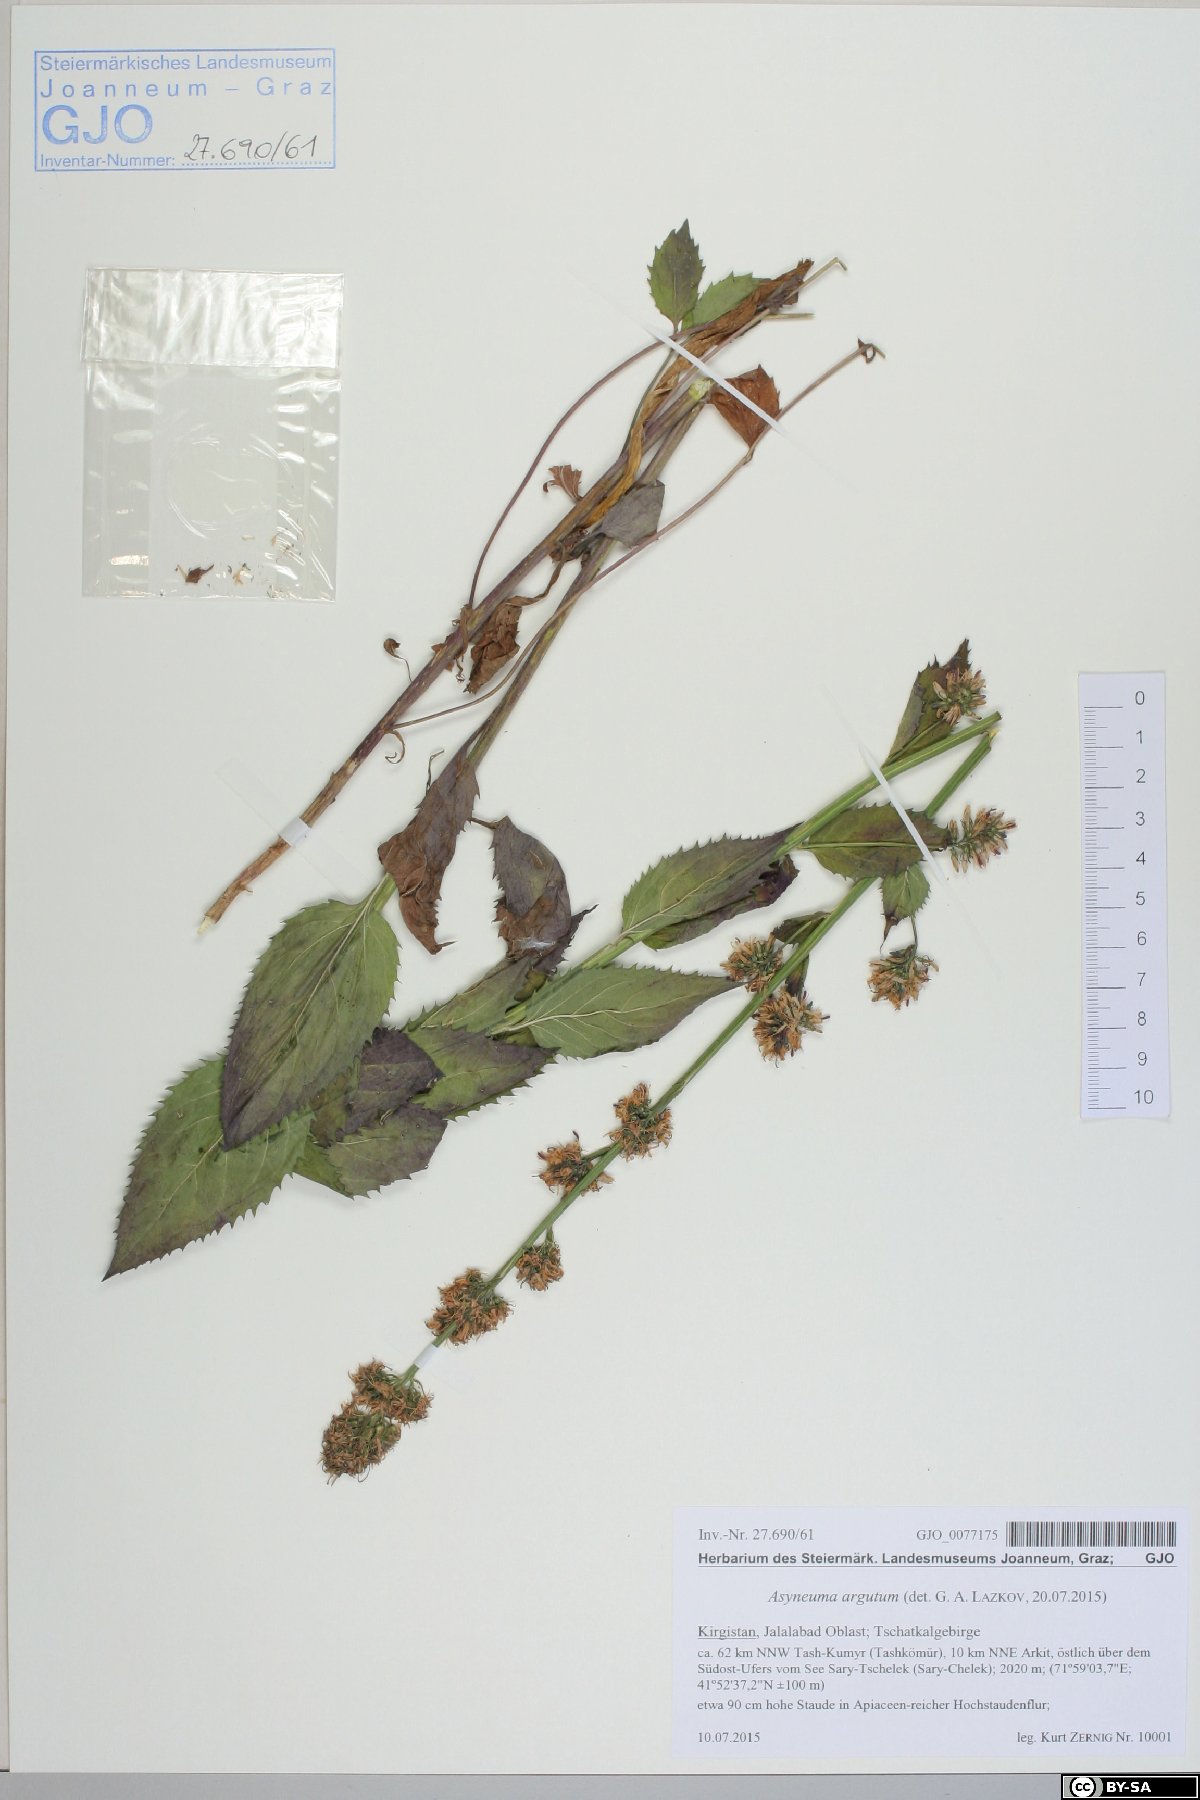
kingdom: Plantae
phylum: Tracheophyta
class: Magnoliopsida
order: Asterales
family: Campanulaceae
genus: Asyneuma
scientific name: Asyneuma argutum
